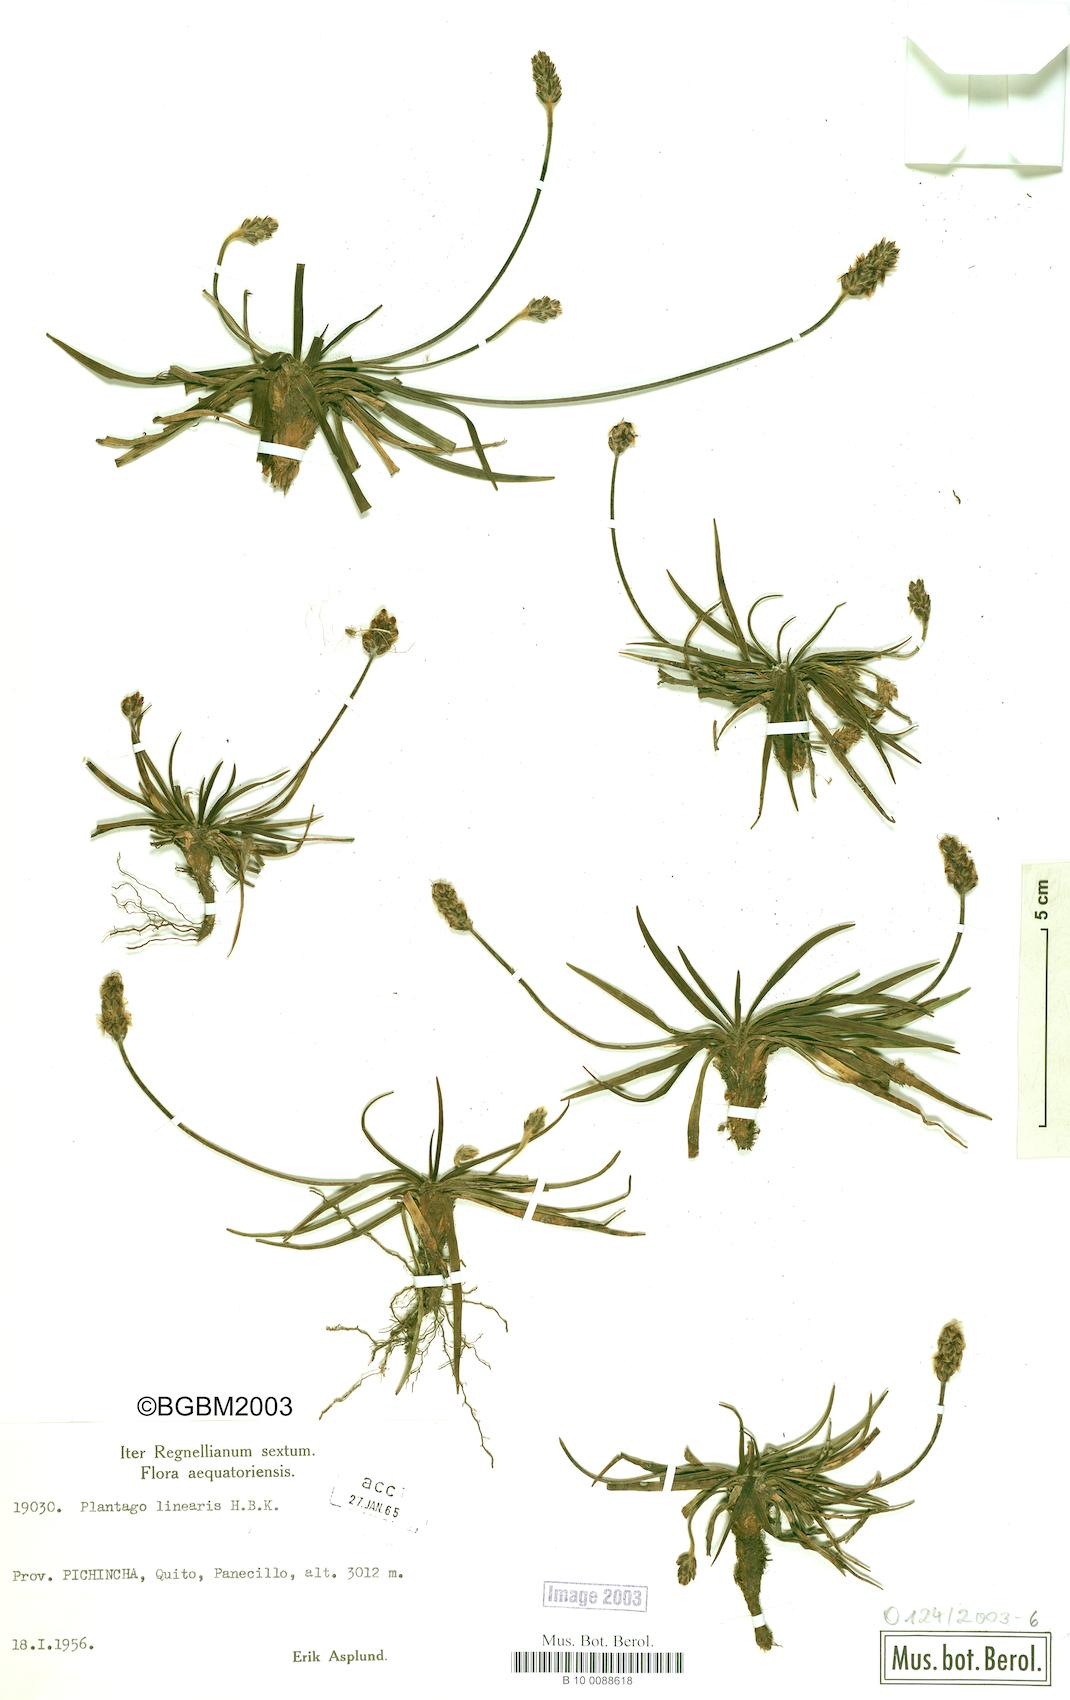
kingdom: Plantae
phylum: Tracheophyta
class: Magnoliopsida
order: Lamiales
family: Plantaginaceae
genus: Plantago
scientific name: Plantago linearis
